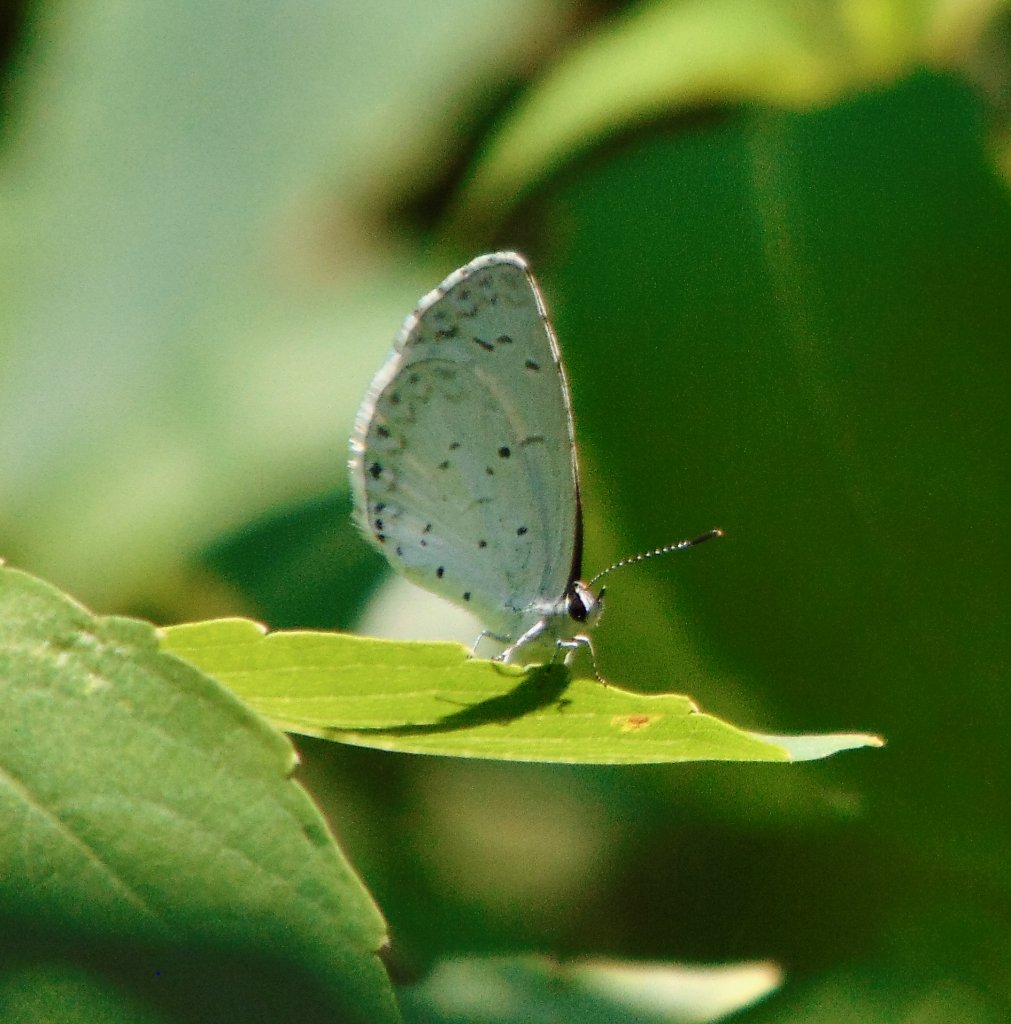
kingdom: Animalia
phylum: Arthropoda
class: Insecta
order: Lepidoptera
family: Lycaenidae
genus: Cyaniris
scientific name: Cyaniris neglecta
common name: Summer Azure
